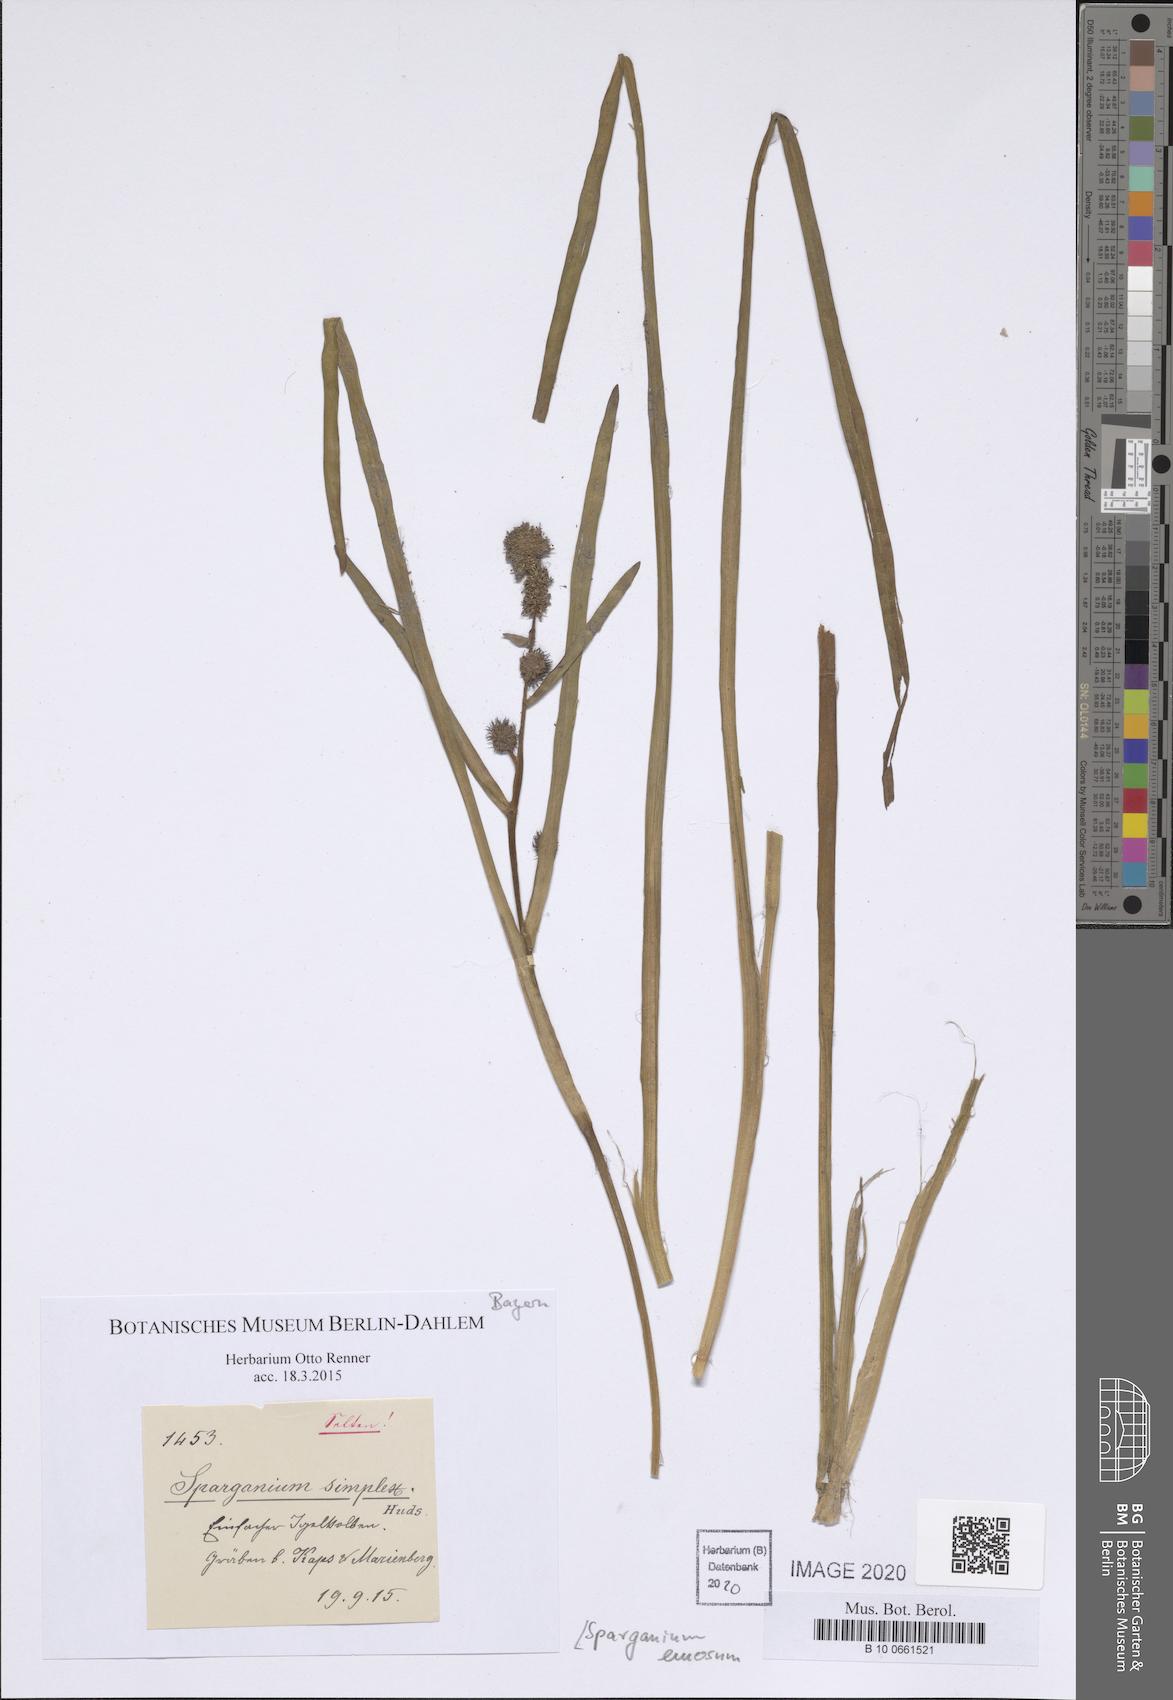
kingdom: Plantae
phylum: Tracheophyta
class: Liliopsida
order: Poales
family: Typhaceae
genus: Sparganium
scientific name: Sparganium emersum
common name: Unbranched bur-reed
